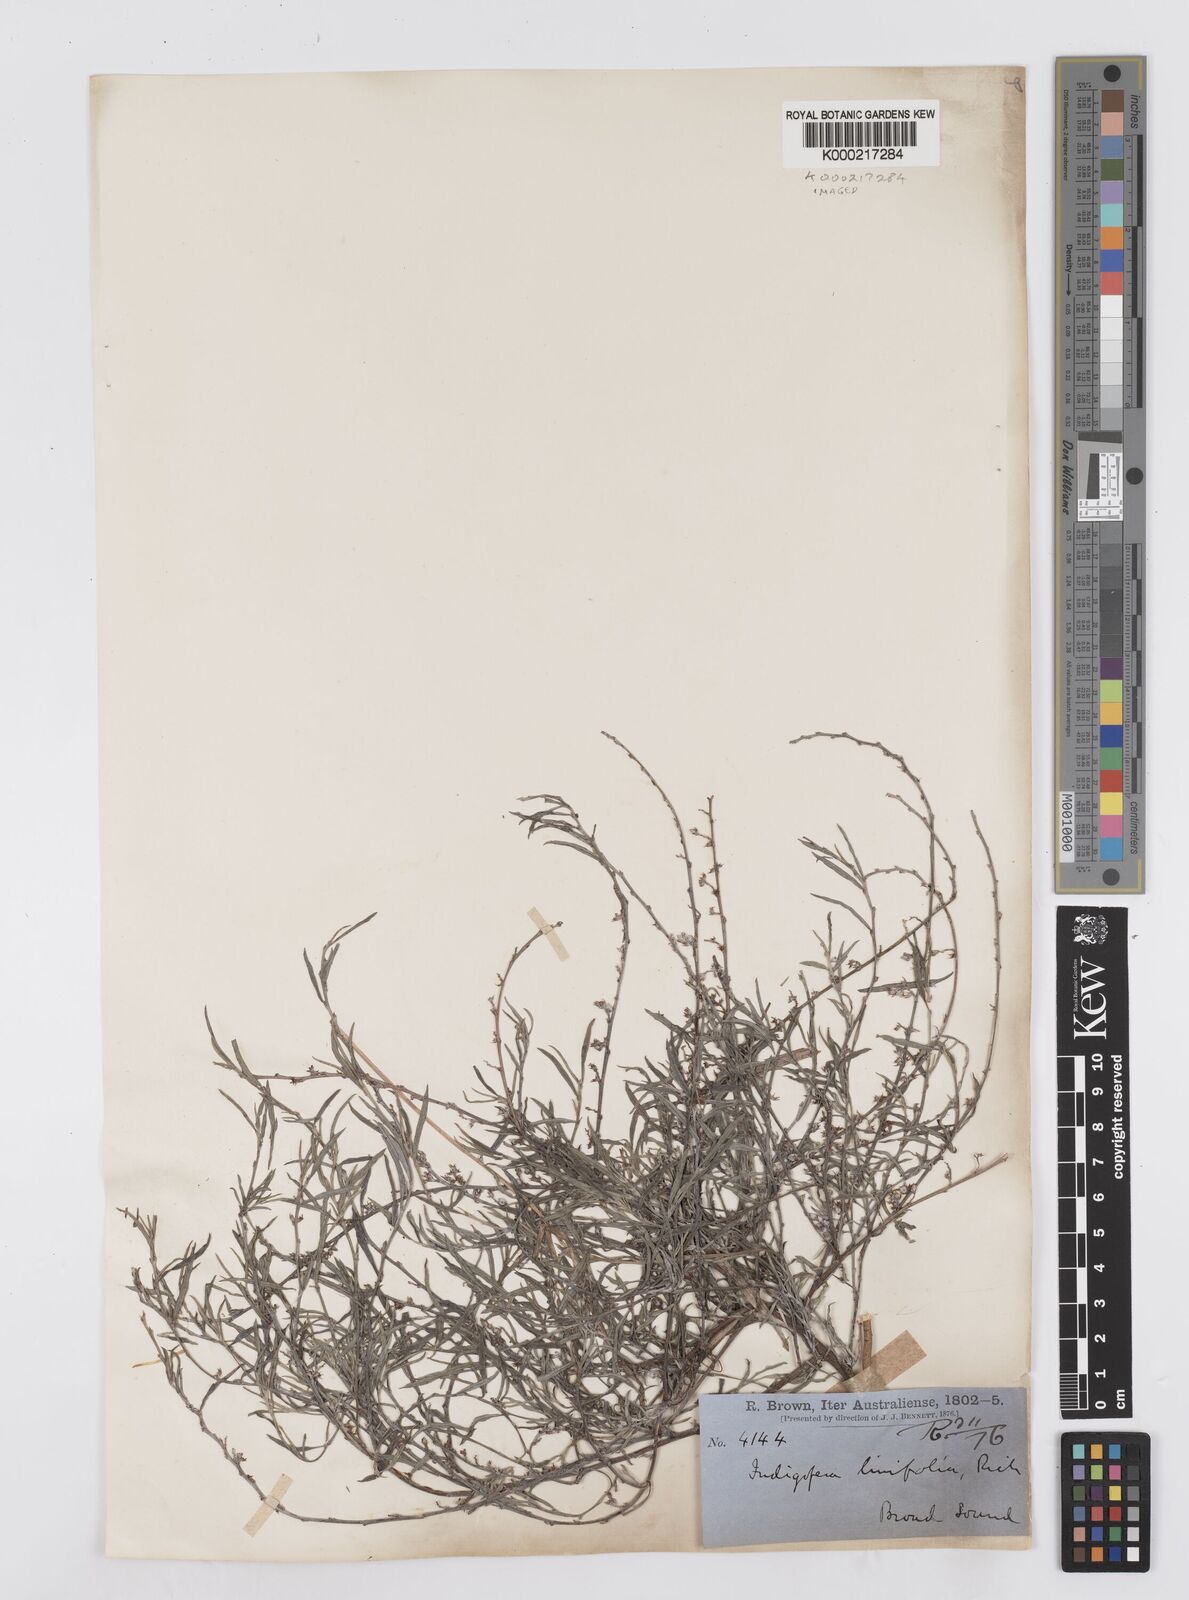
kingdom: Plantae
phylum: Tracheophyta
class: Magnoliopsida
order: Fabales
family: Fabaceae
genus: Indigofera
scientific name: Indigofera linifolia
